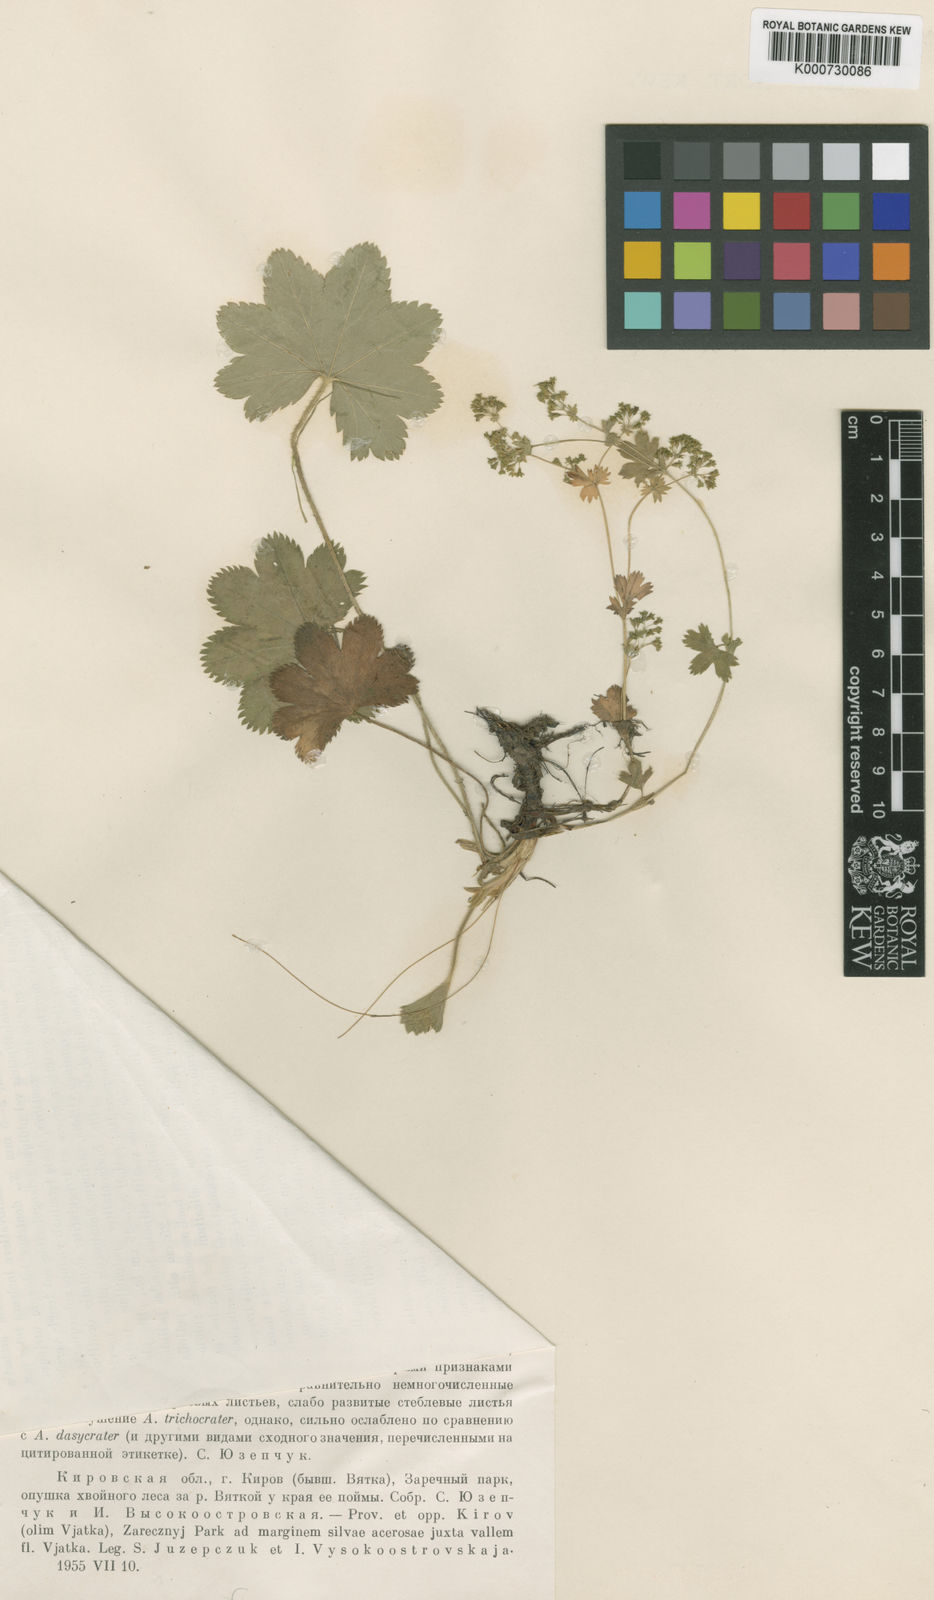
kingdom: Plantae
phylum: Tracheophyta
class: Magnoliopsida
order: Rosales
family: Rosaceae
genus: Alchemilla
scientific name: Alchemilla trichocrater
